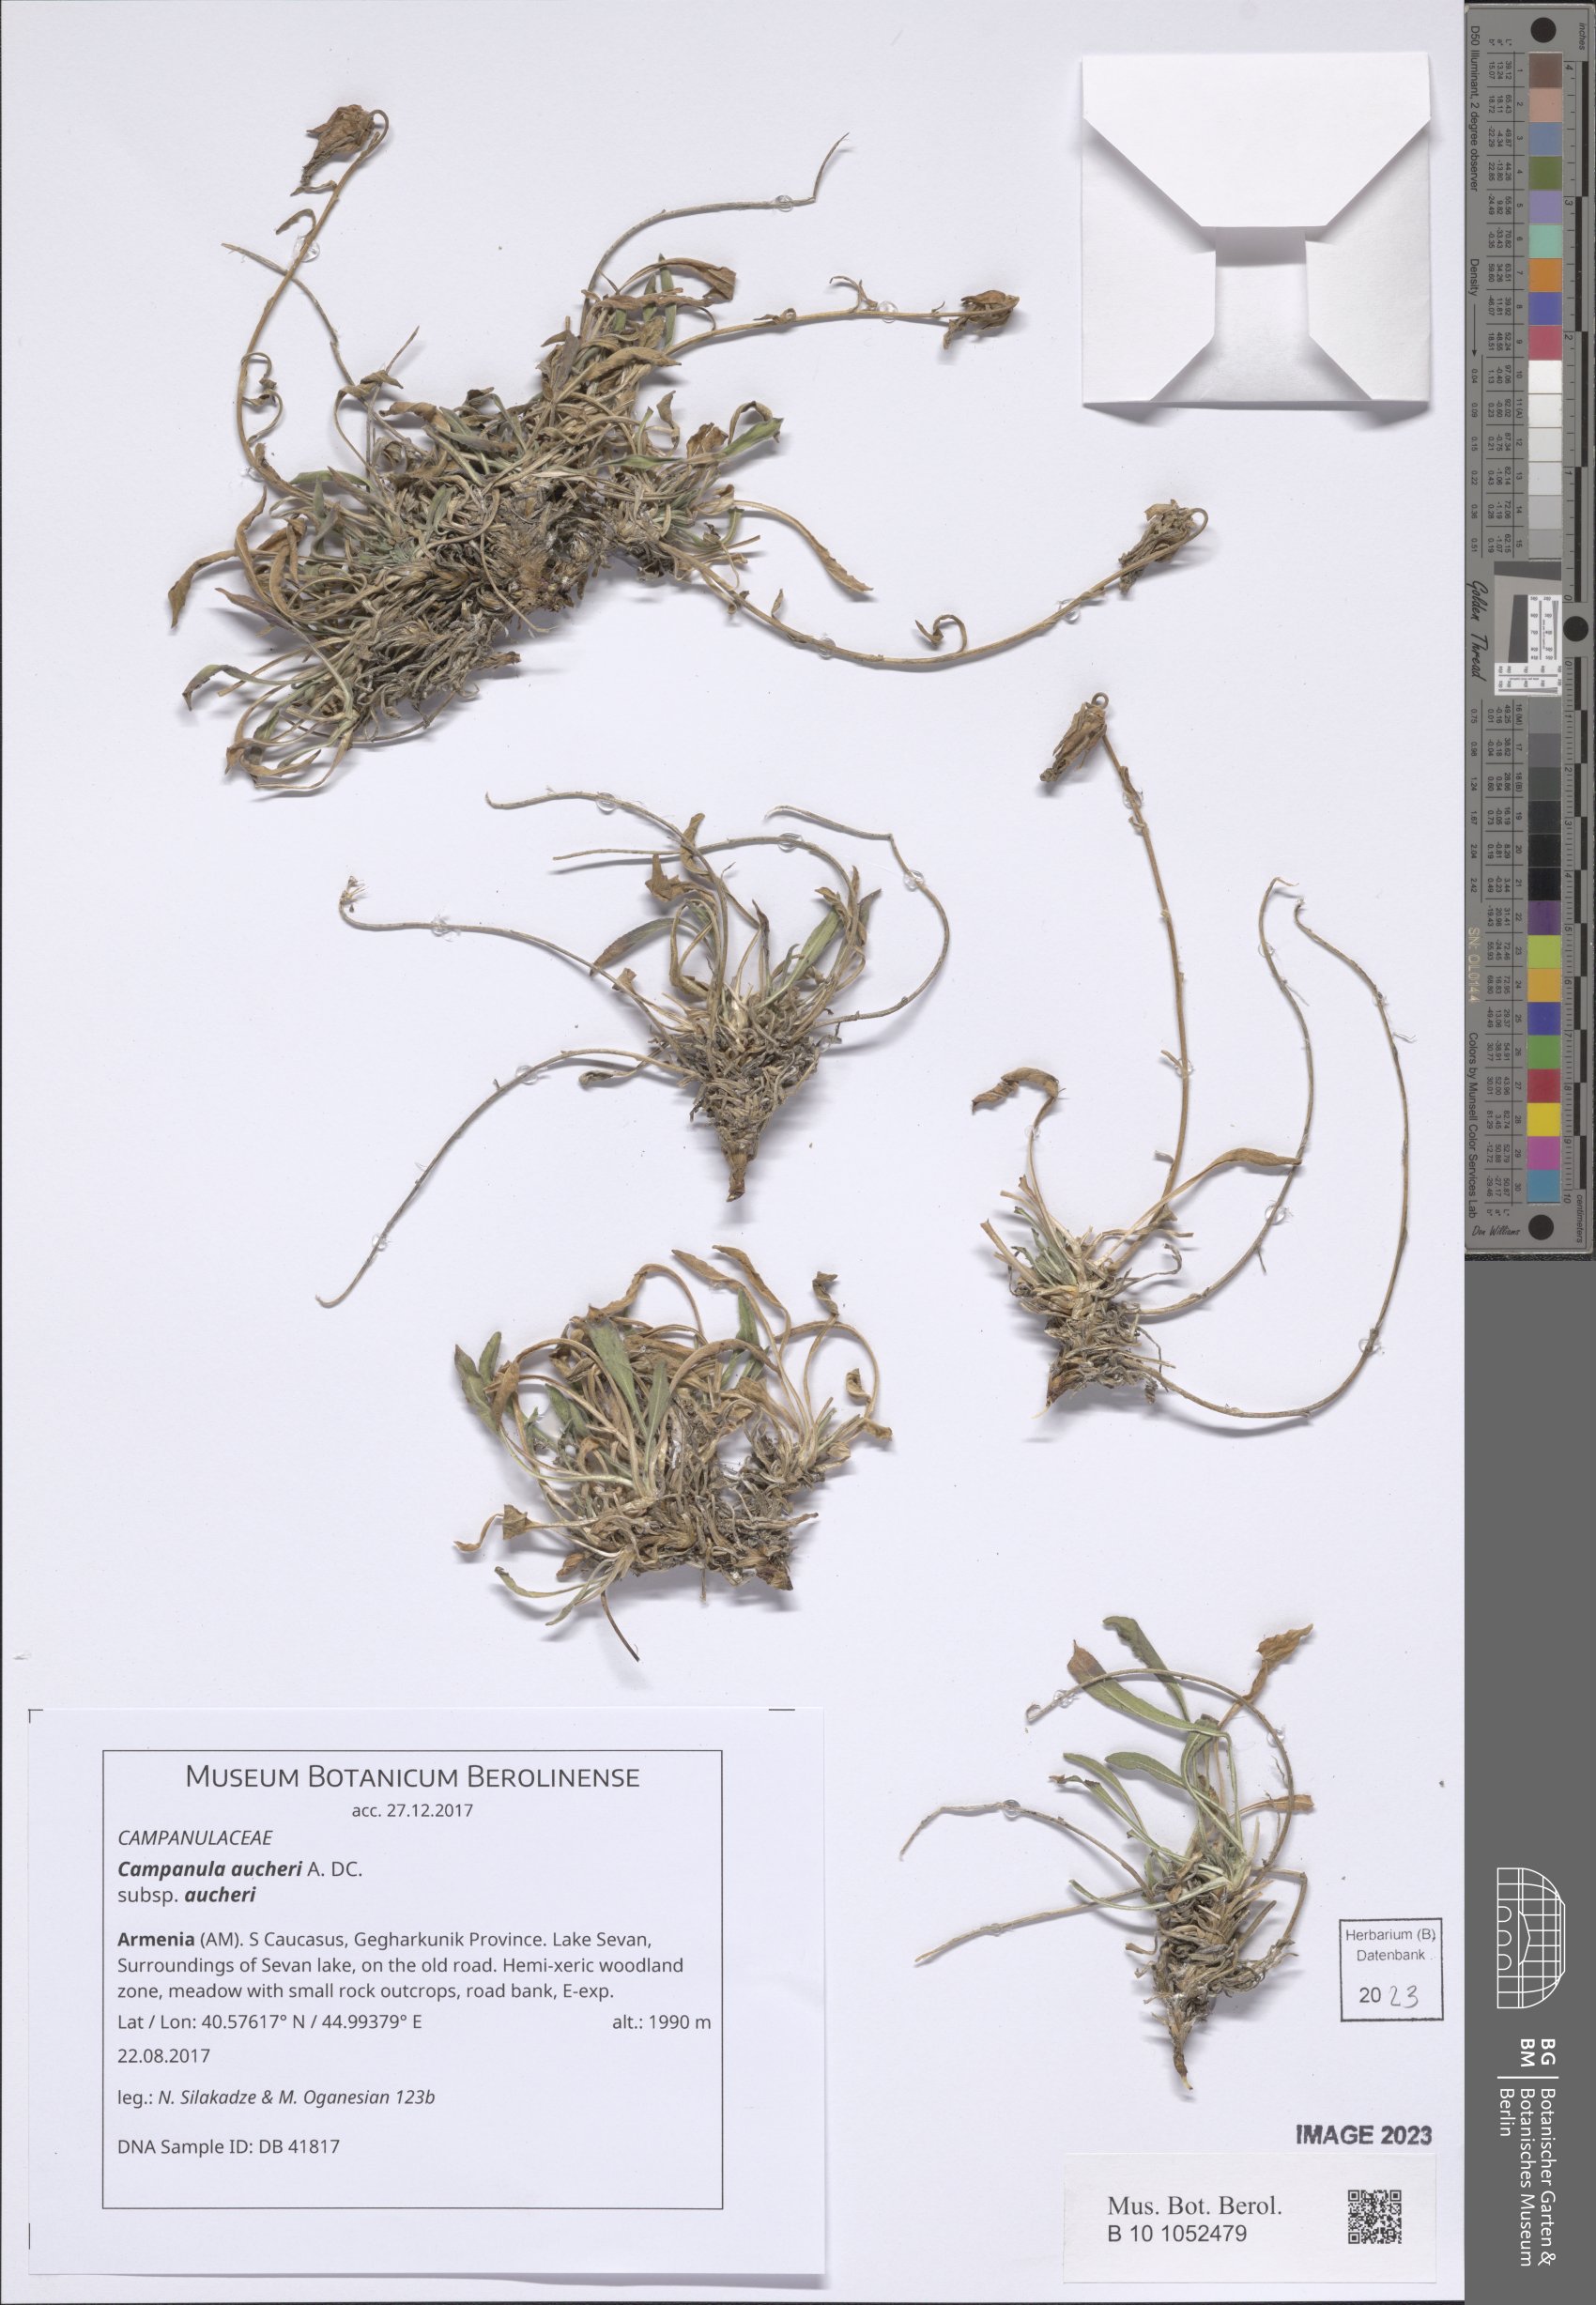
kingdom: Plantae
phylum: Tracheophyta
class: Magnoliopsida
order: Asterales
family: Campanulaceae
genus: Campanula
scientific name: Campanula saxifraga
